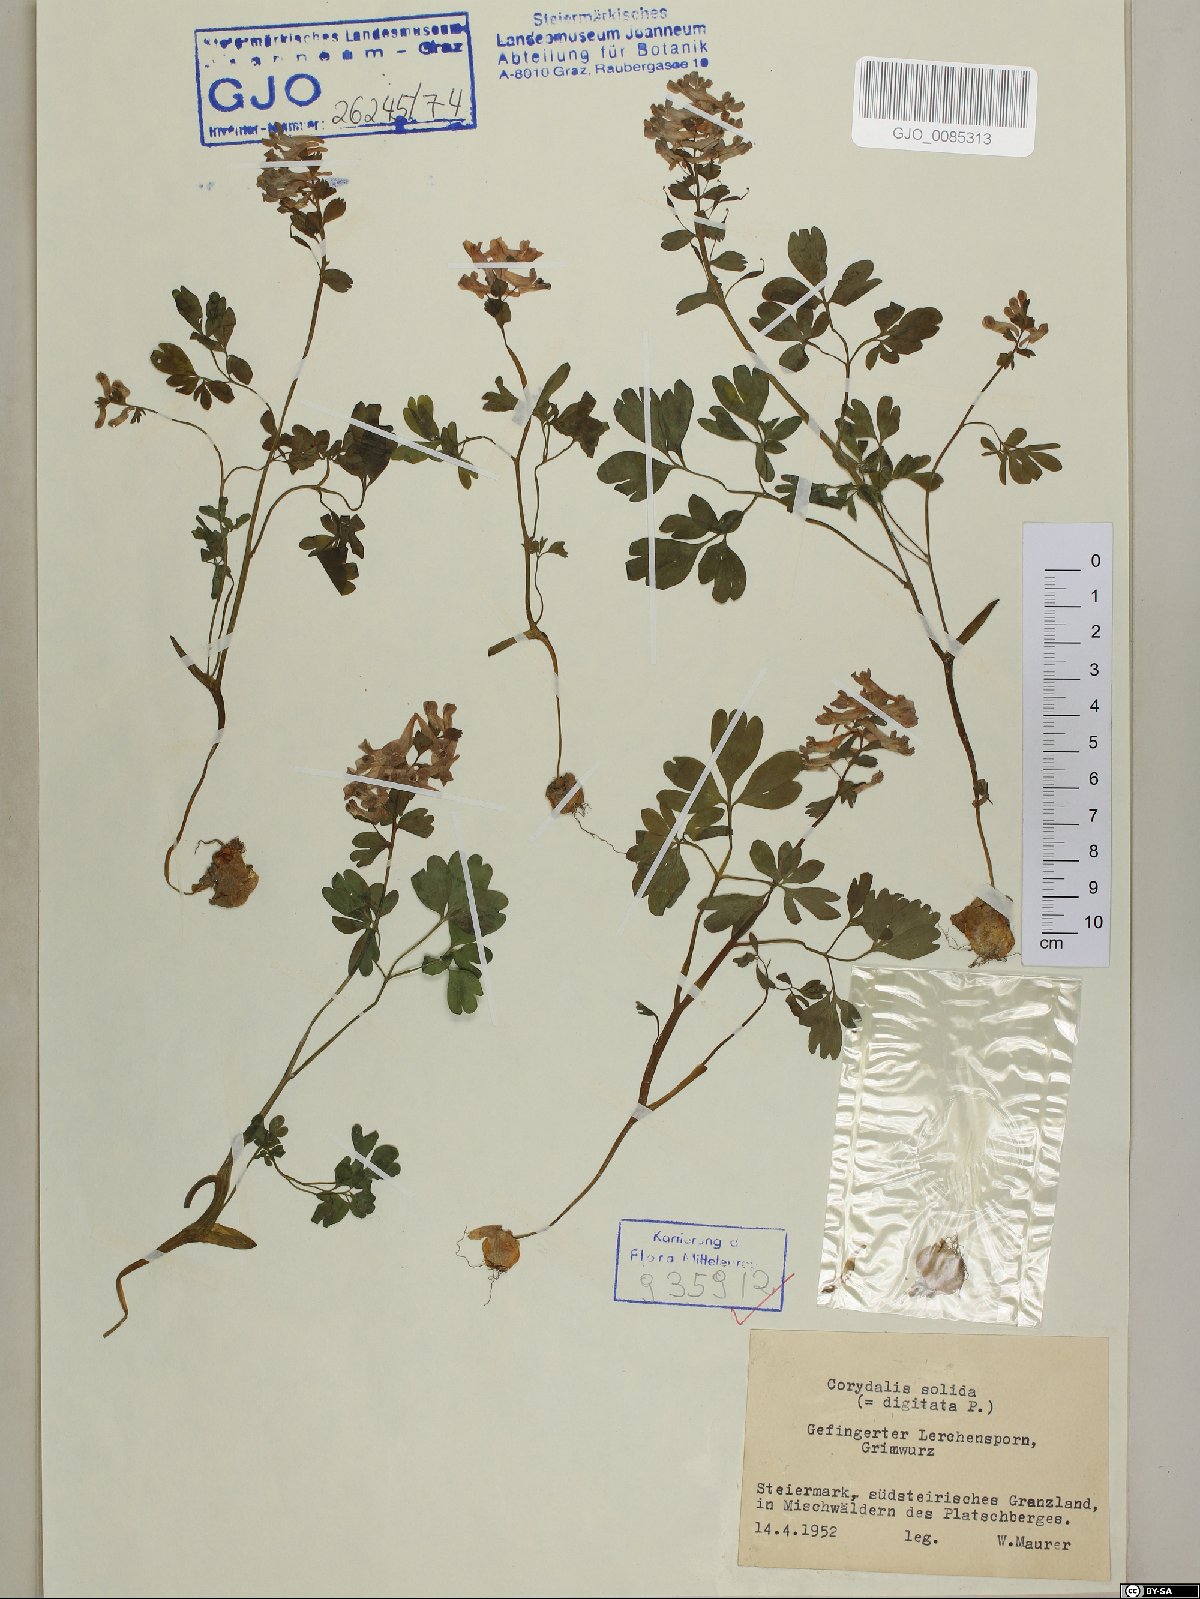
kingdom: Plantae
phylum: Tracheophyta
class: Magnoliopsida
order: Ranunculales
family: Papaveraceae
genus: Corydalis
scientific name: Corydalis solida
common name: Bird-in-a-bush
